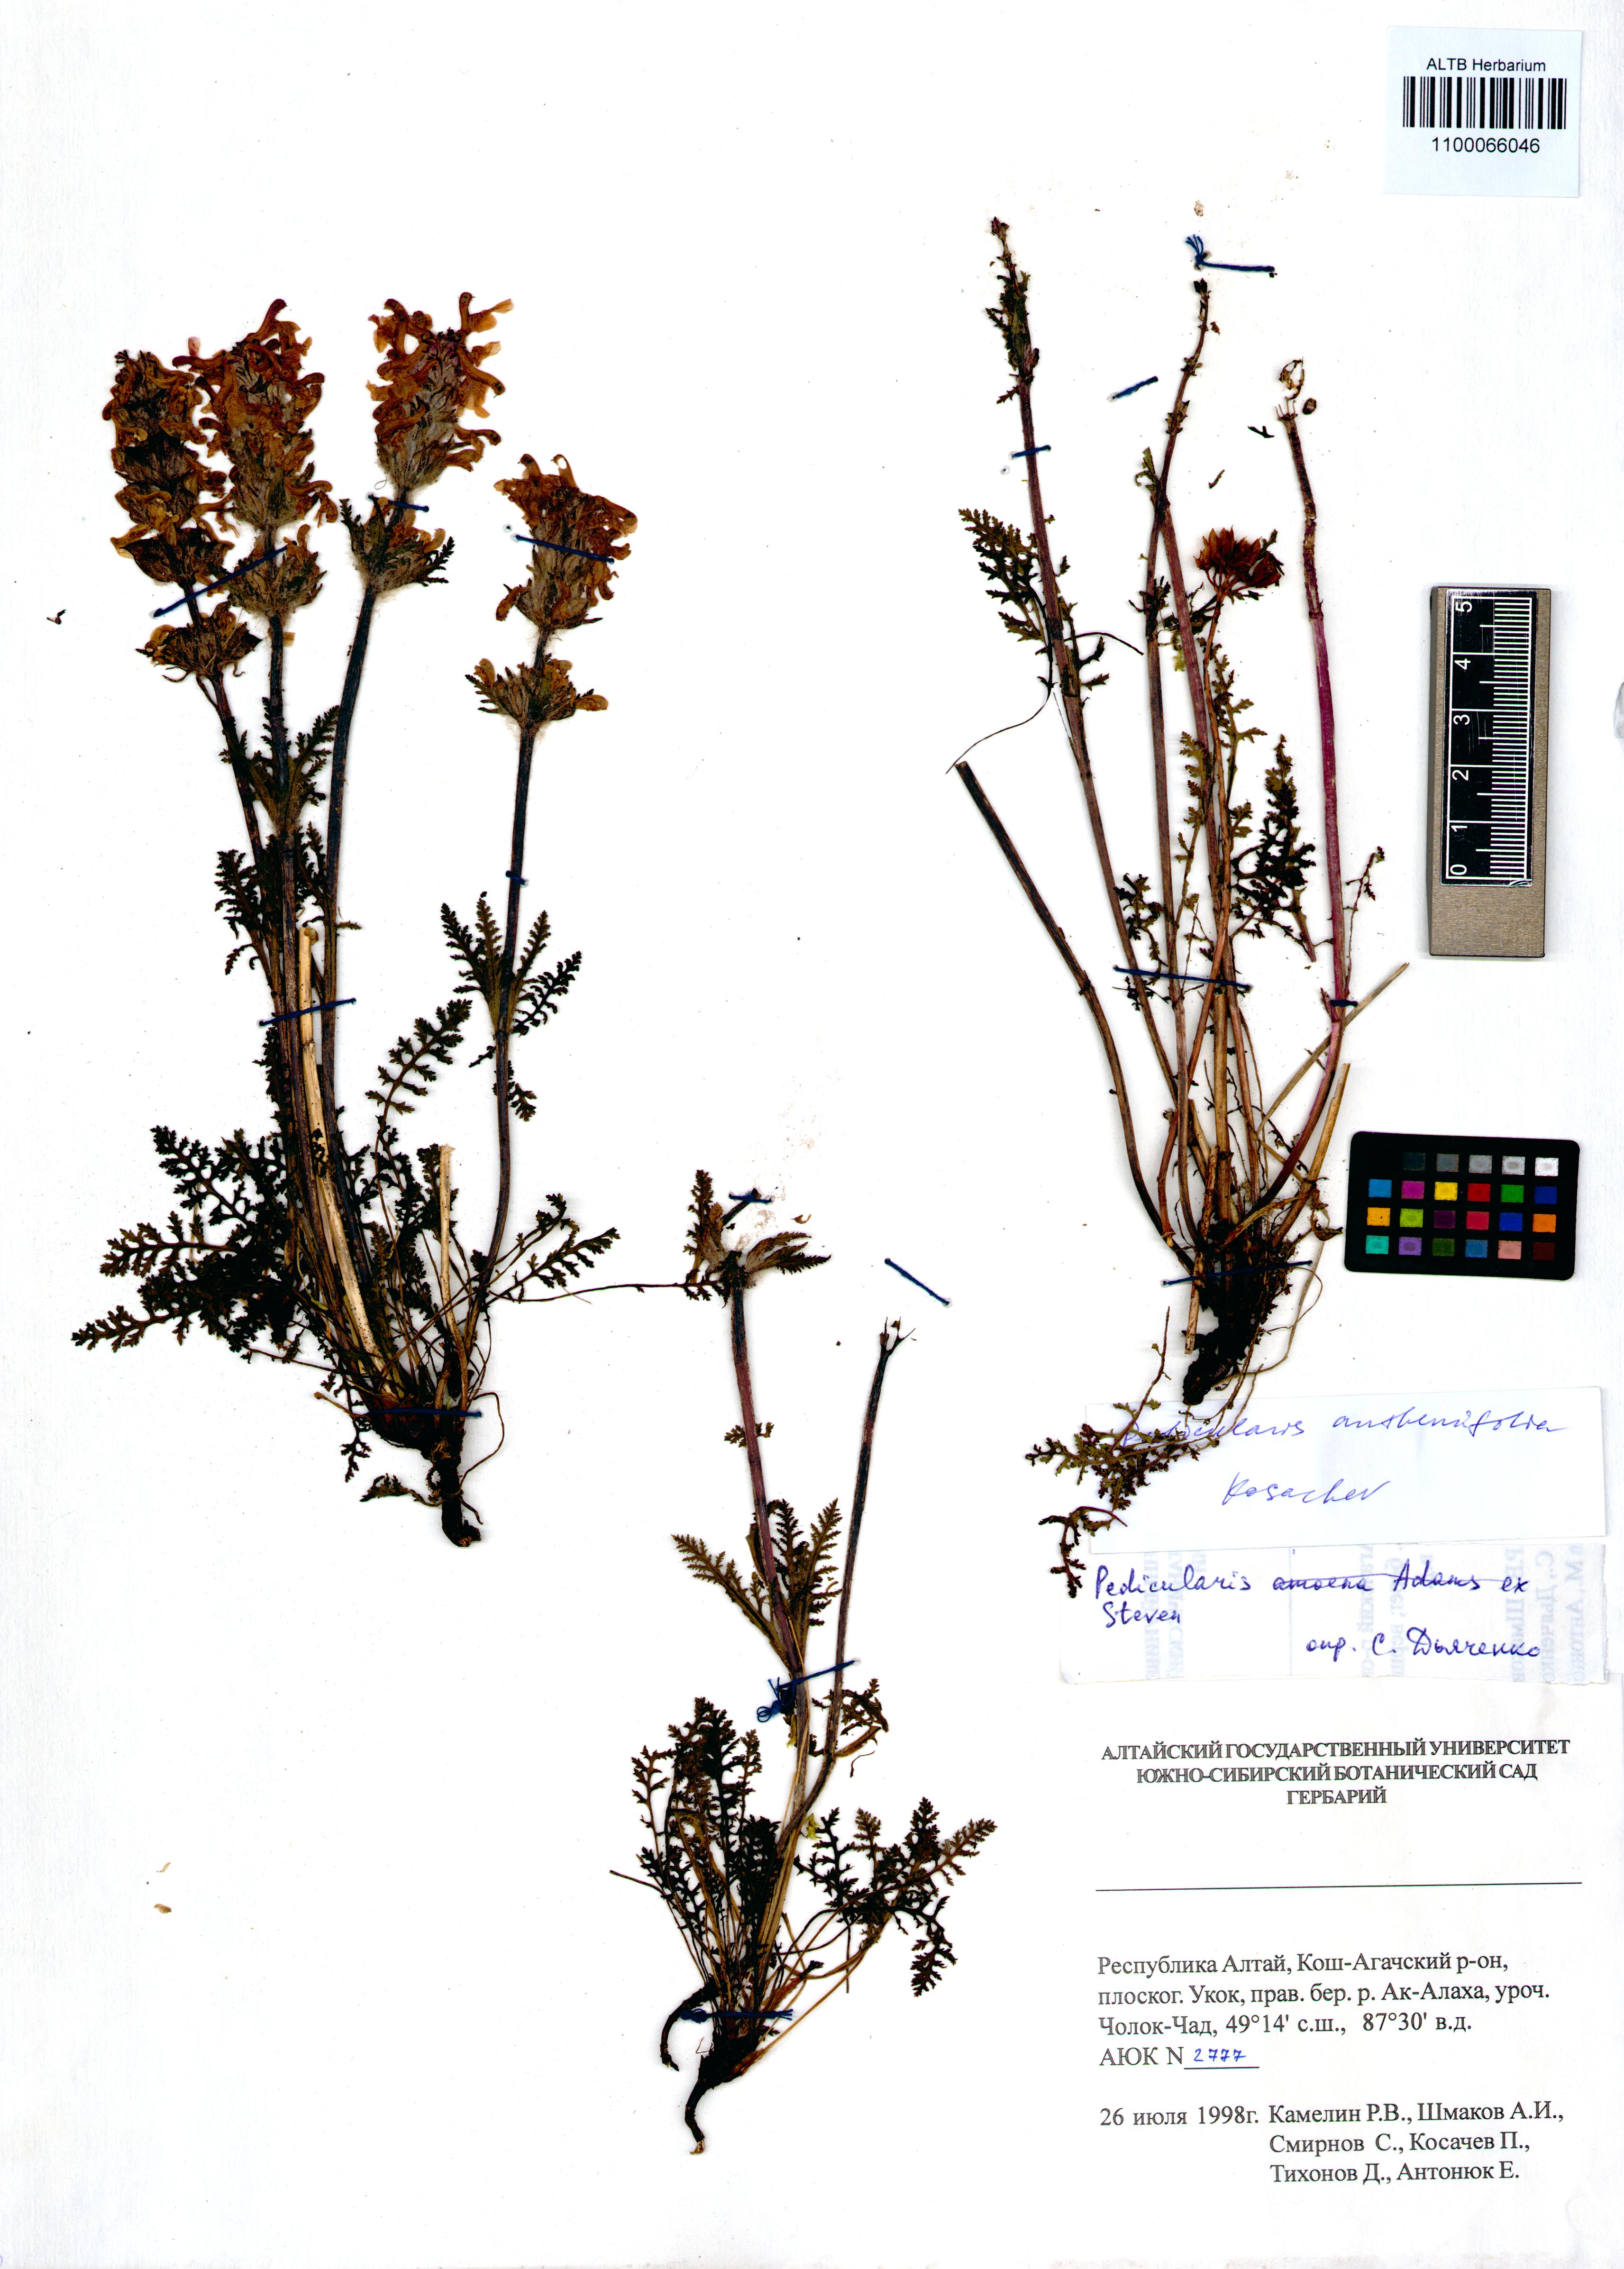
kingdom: Plantae
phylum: Tracheophyta
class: Magnoliopsida
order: Lamiales
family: Orobanchaceae
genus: Pedicularis
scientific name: Pedicularis anthemifolia
